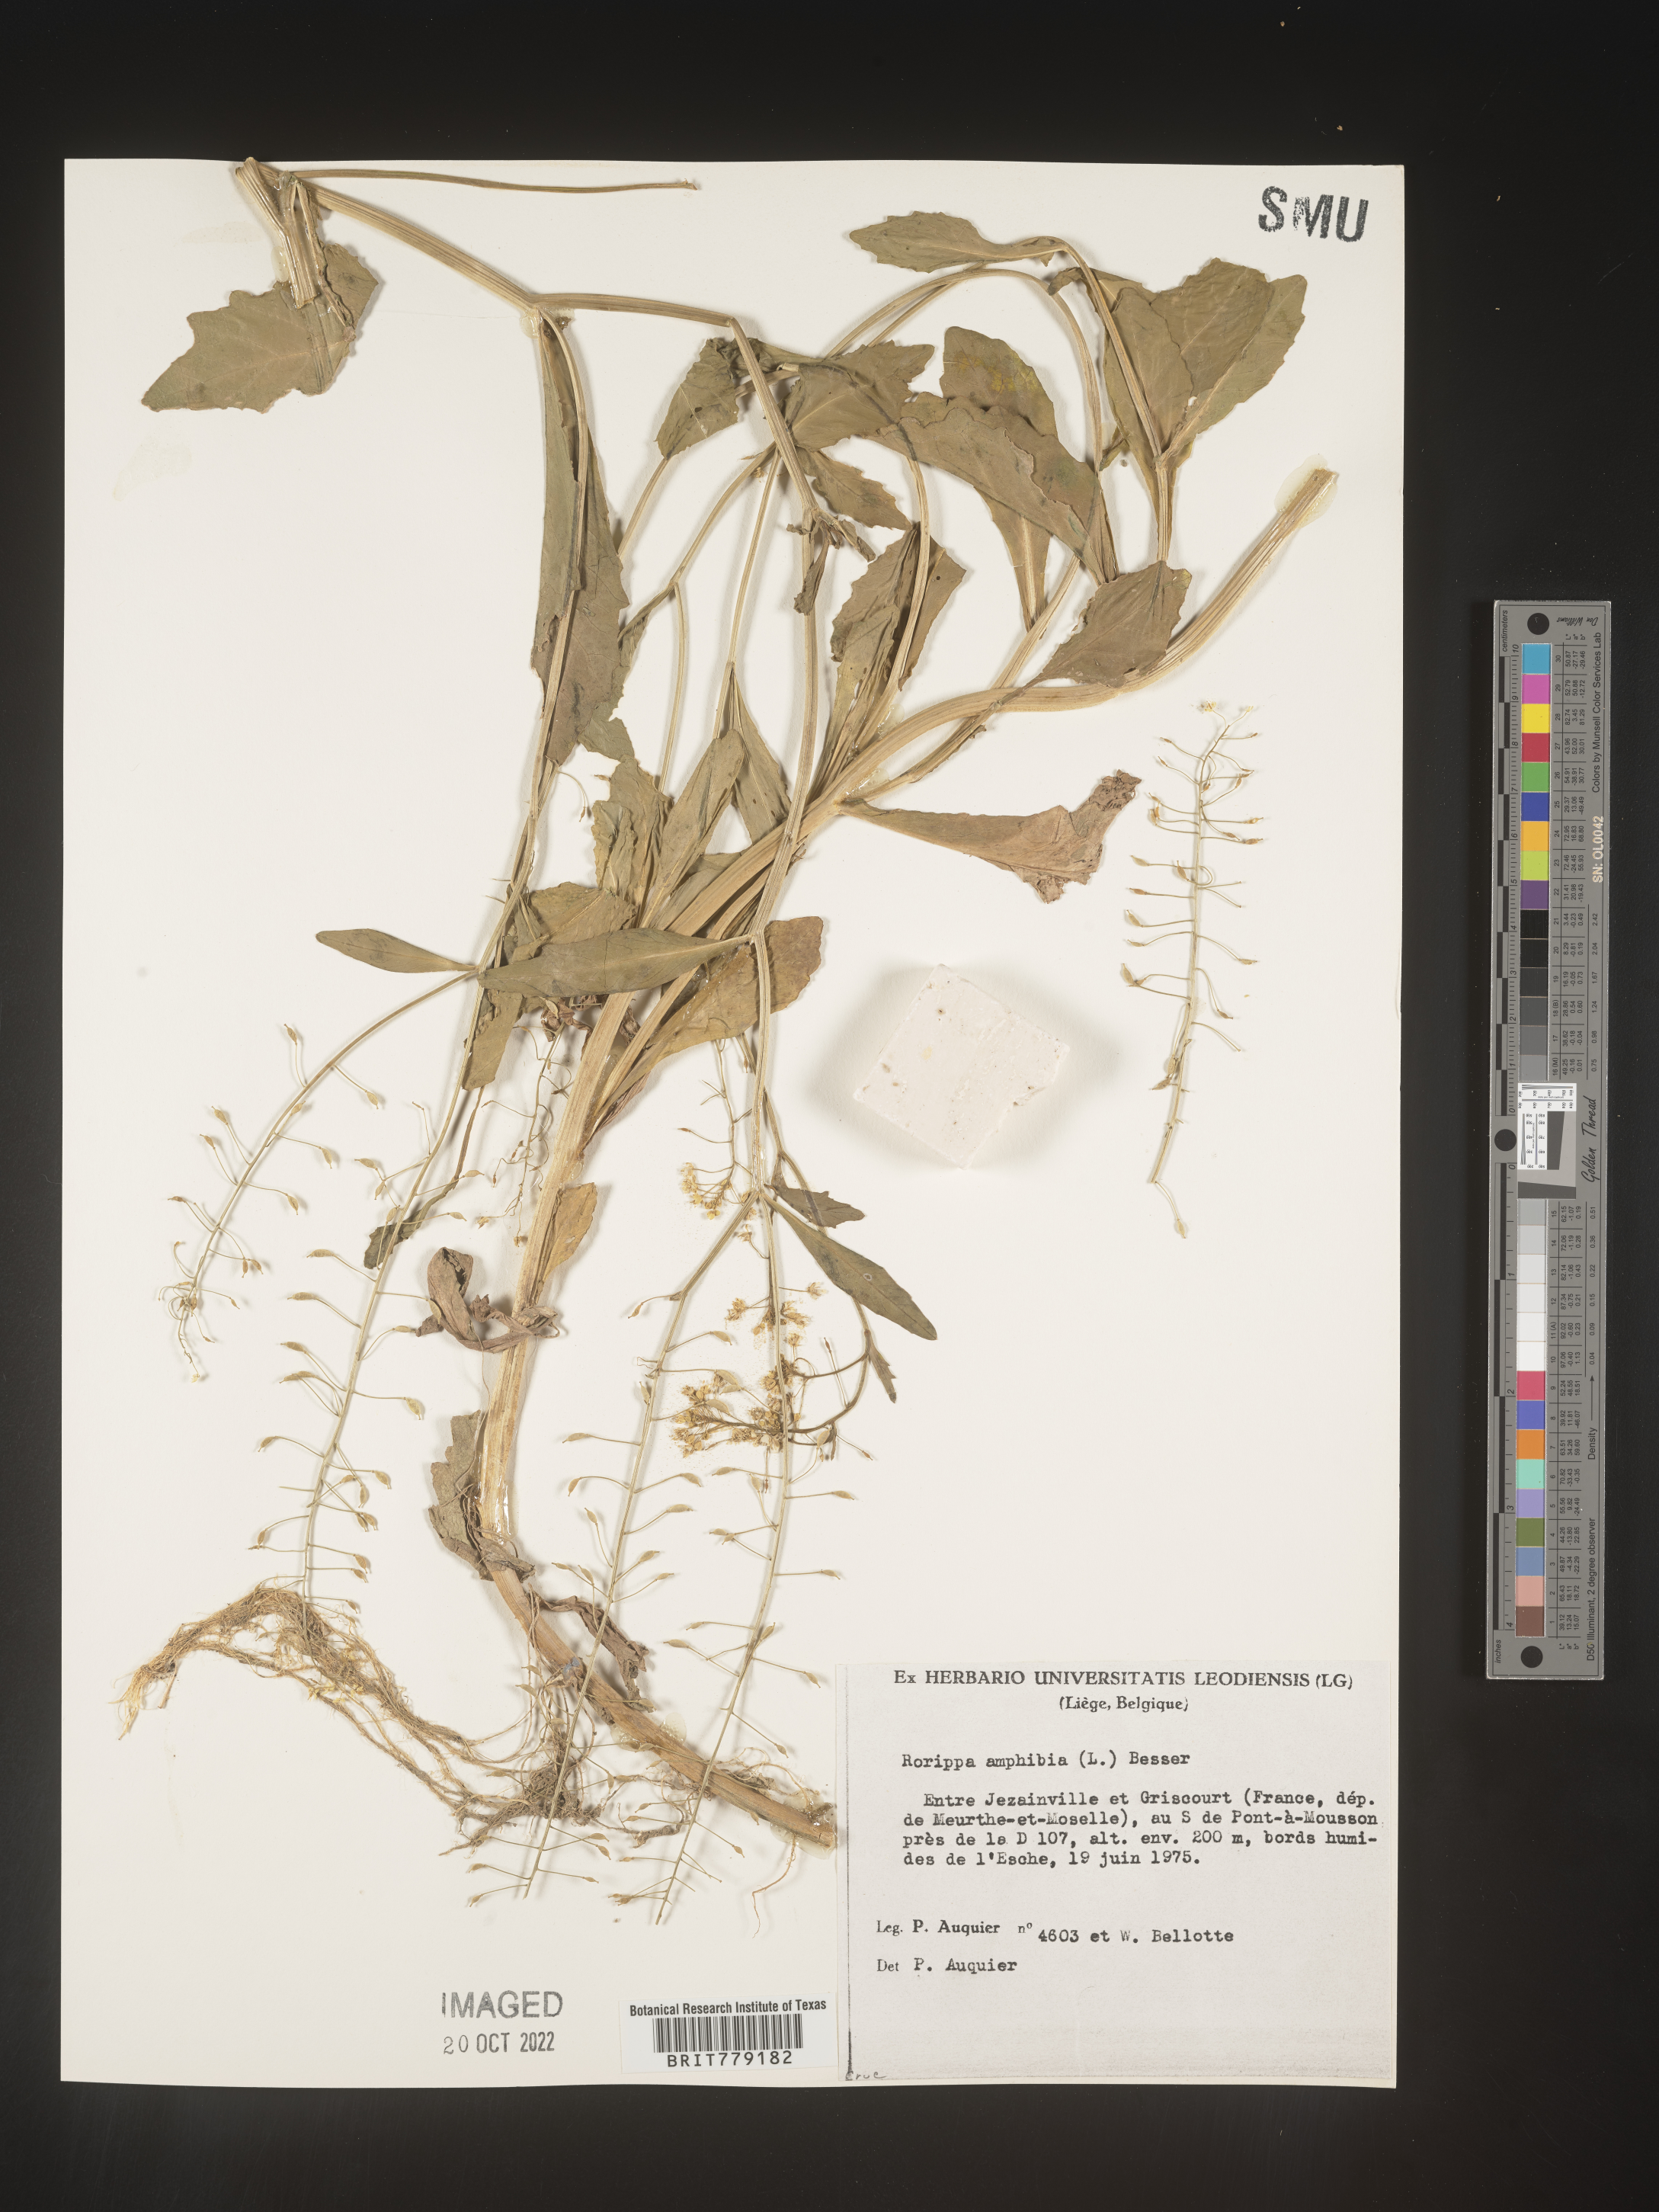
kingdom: Plantae
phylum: Tracheophyta
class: Magnoliopsida
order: Brassicales
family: Brassicaceae
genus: Rorippa
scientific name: Rorippa
